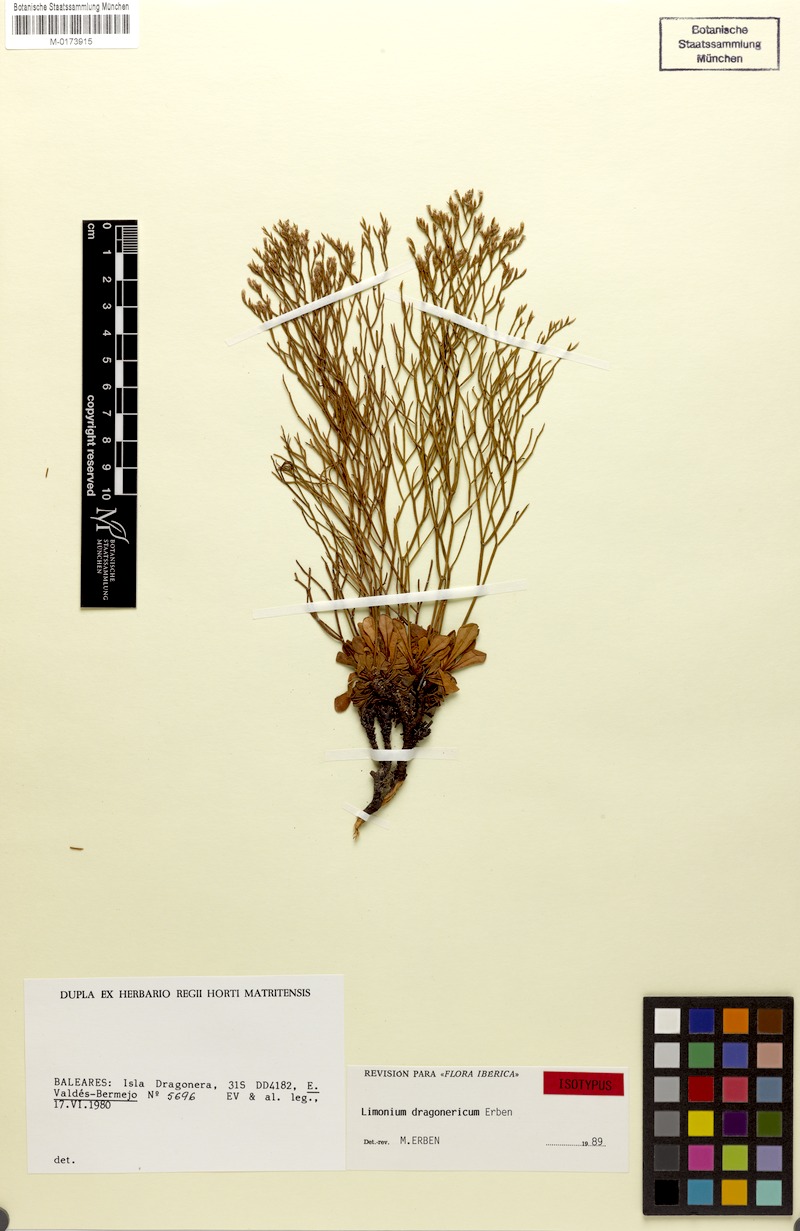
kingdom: Plantae
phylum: Tracheophyta
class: Magnoliopsida
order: Caryophyllales
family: Plumbaginaceae
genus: Limonium
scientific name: Limonium dragonericum
